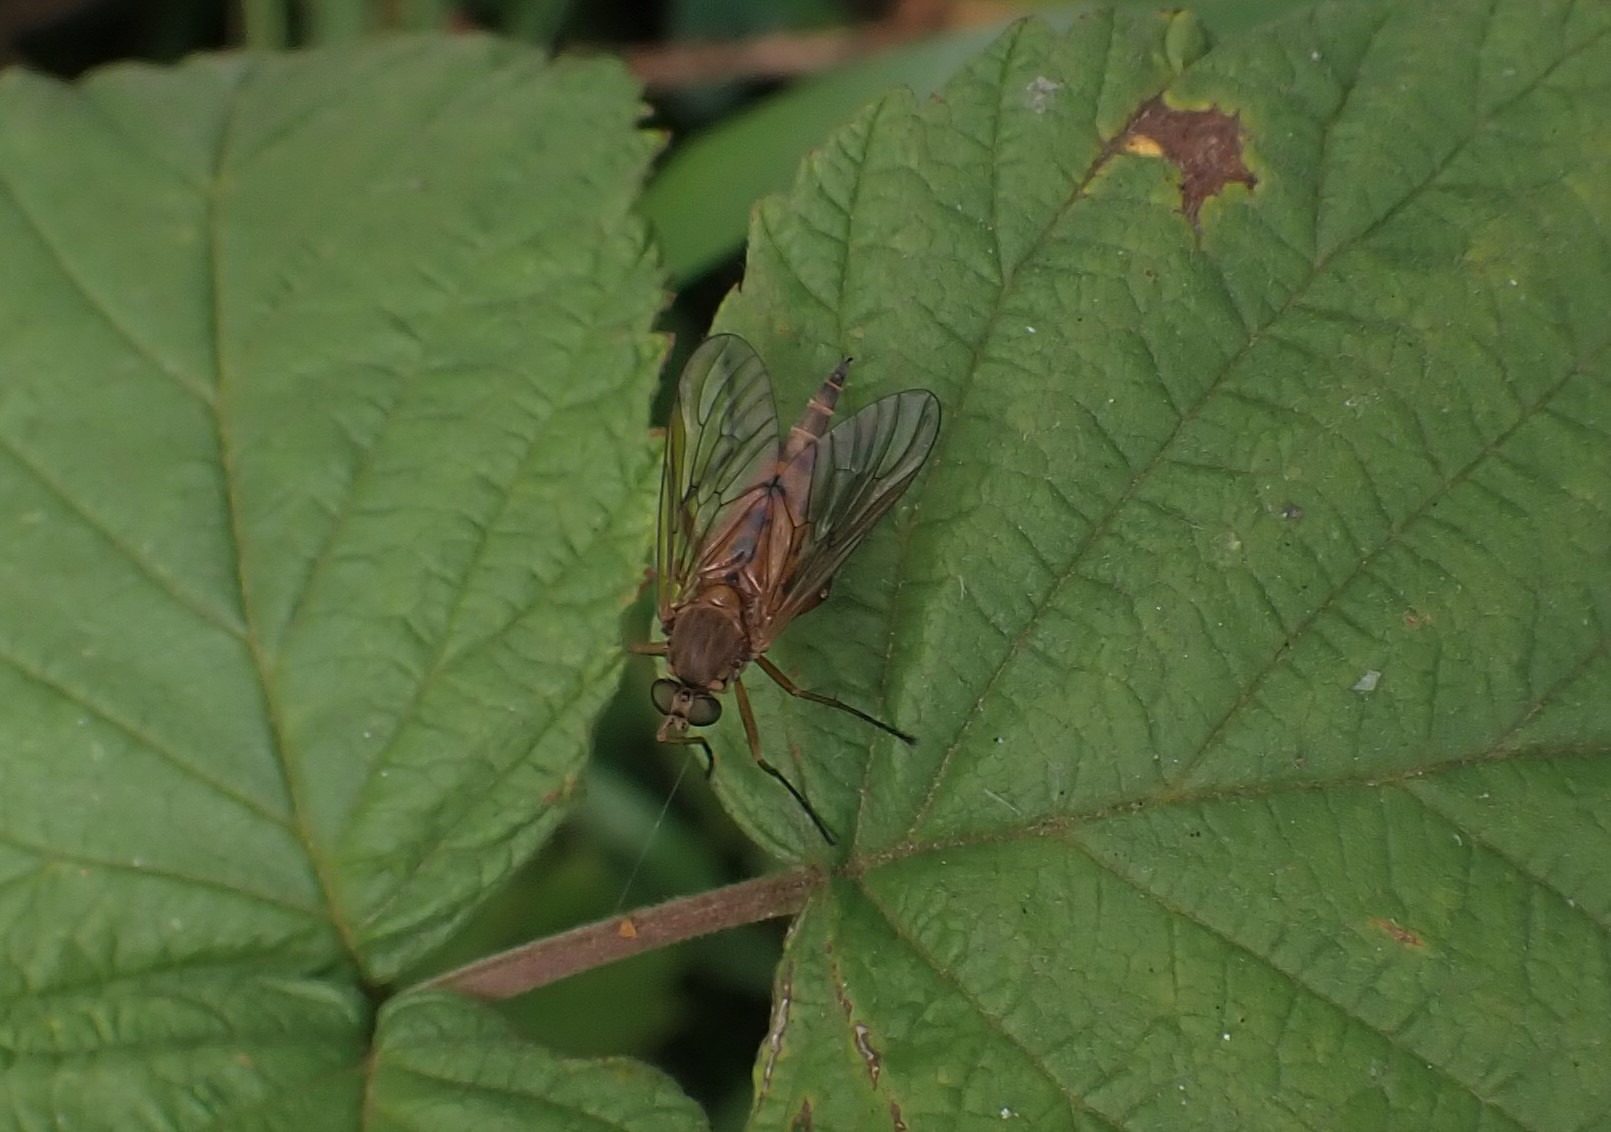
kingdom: Animalia
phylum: Arthropoda
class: Insecta
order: Diptera
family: Rhagionidae
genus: Rhagio
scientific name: Rhagio tringaria
